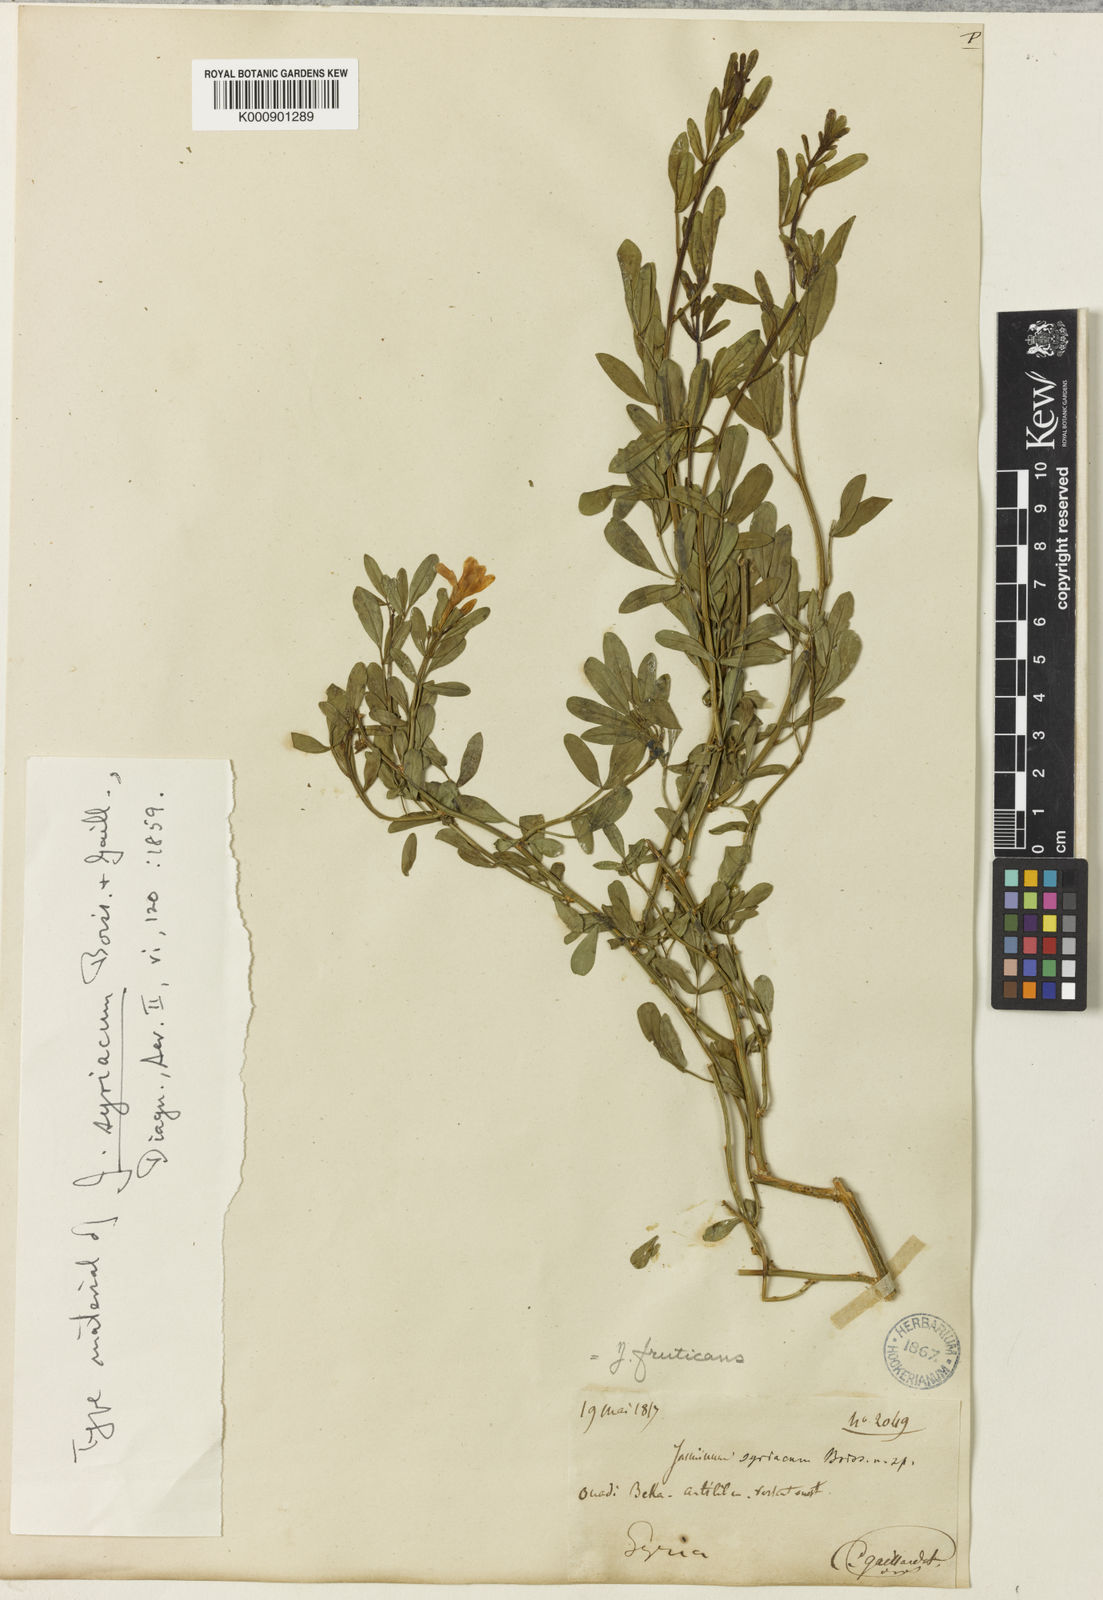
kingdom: Plantae
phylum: Tracheophyta
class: Magnoliopsida
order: Lamiales
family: Oleaceae
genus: Chrysojasminum
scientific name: Chrysojasminum fruticans
